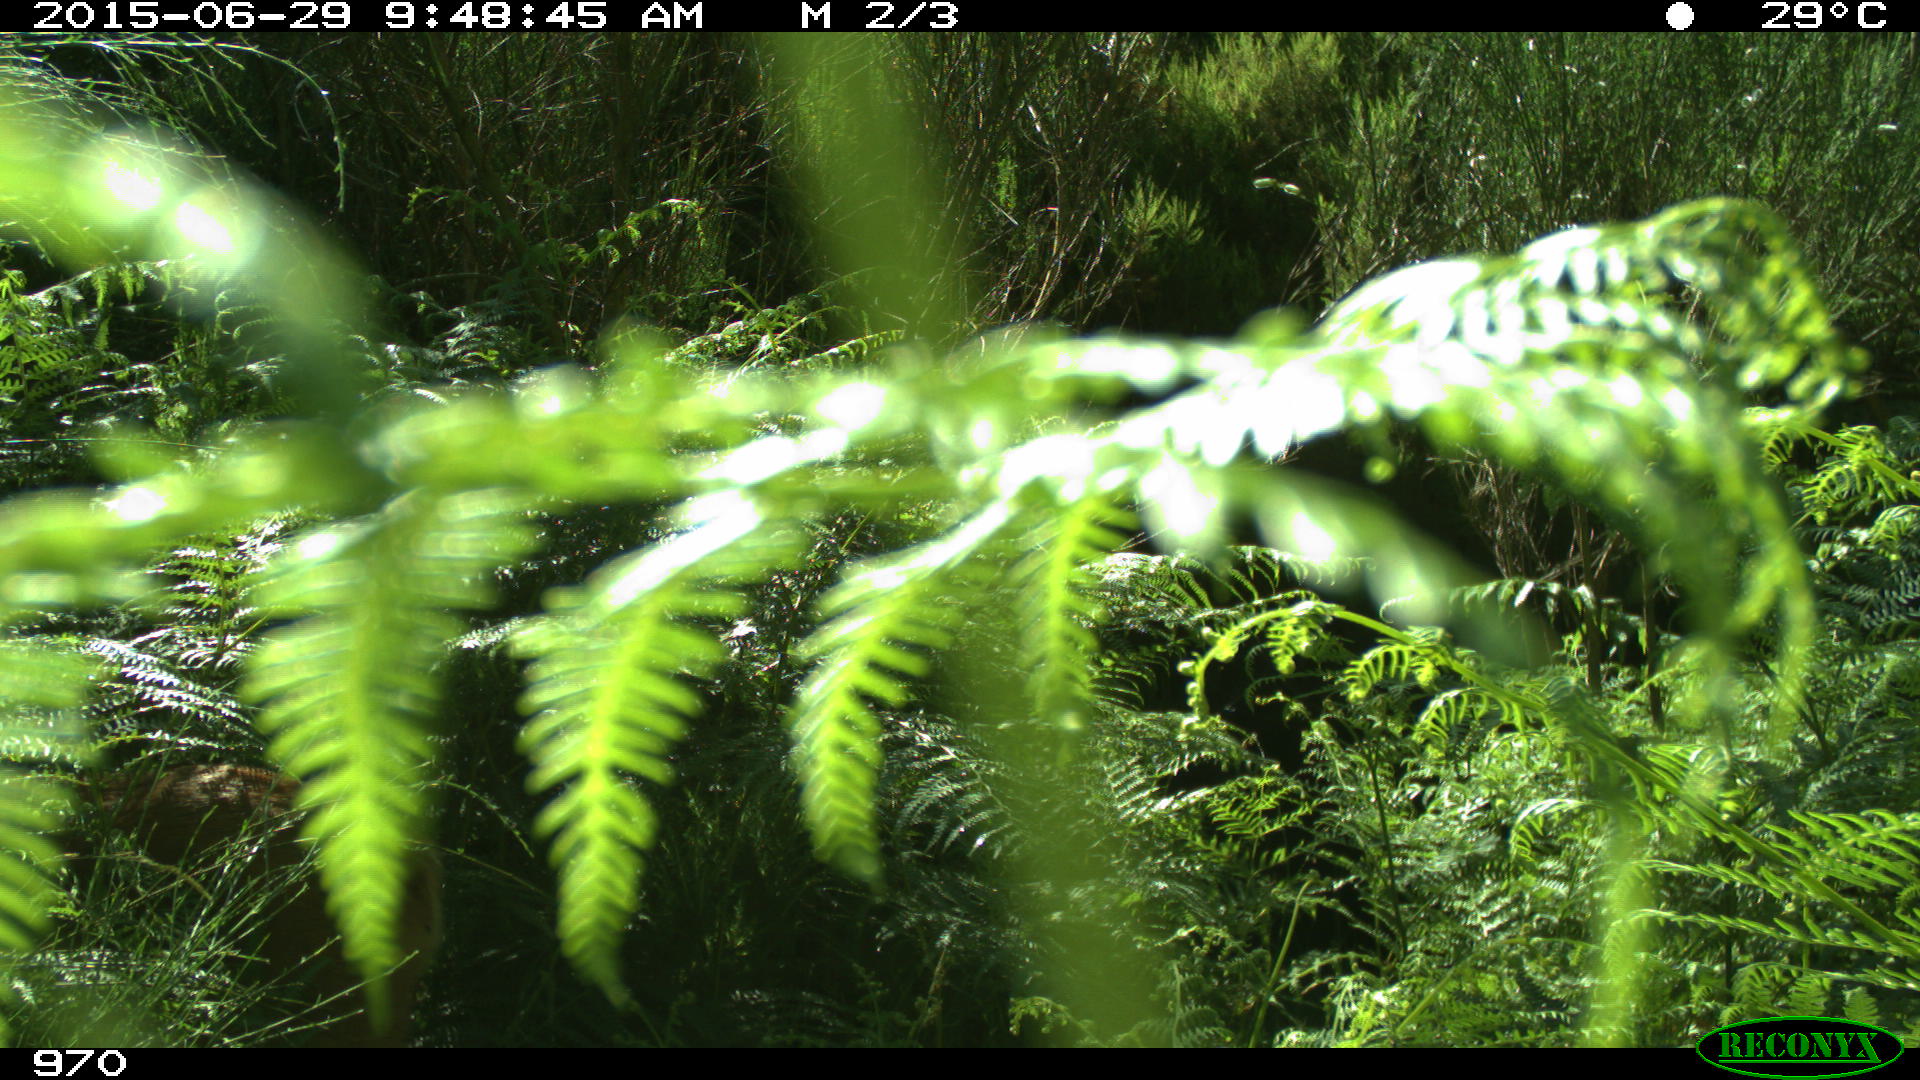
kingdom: Animalia
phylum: Chordata
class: Mammalia
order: Artiodactyla
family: Cervidae
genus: Capreolus
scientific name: Capreolus capreolus
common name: Western roe deer
